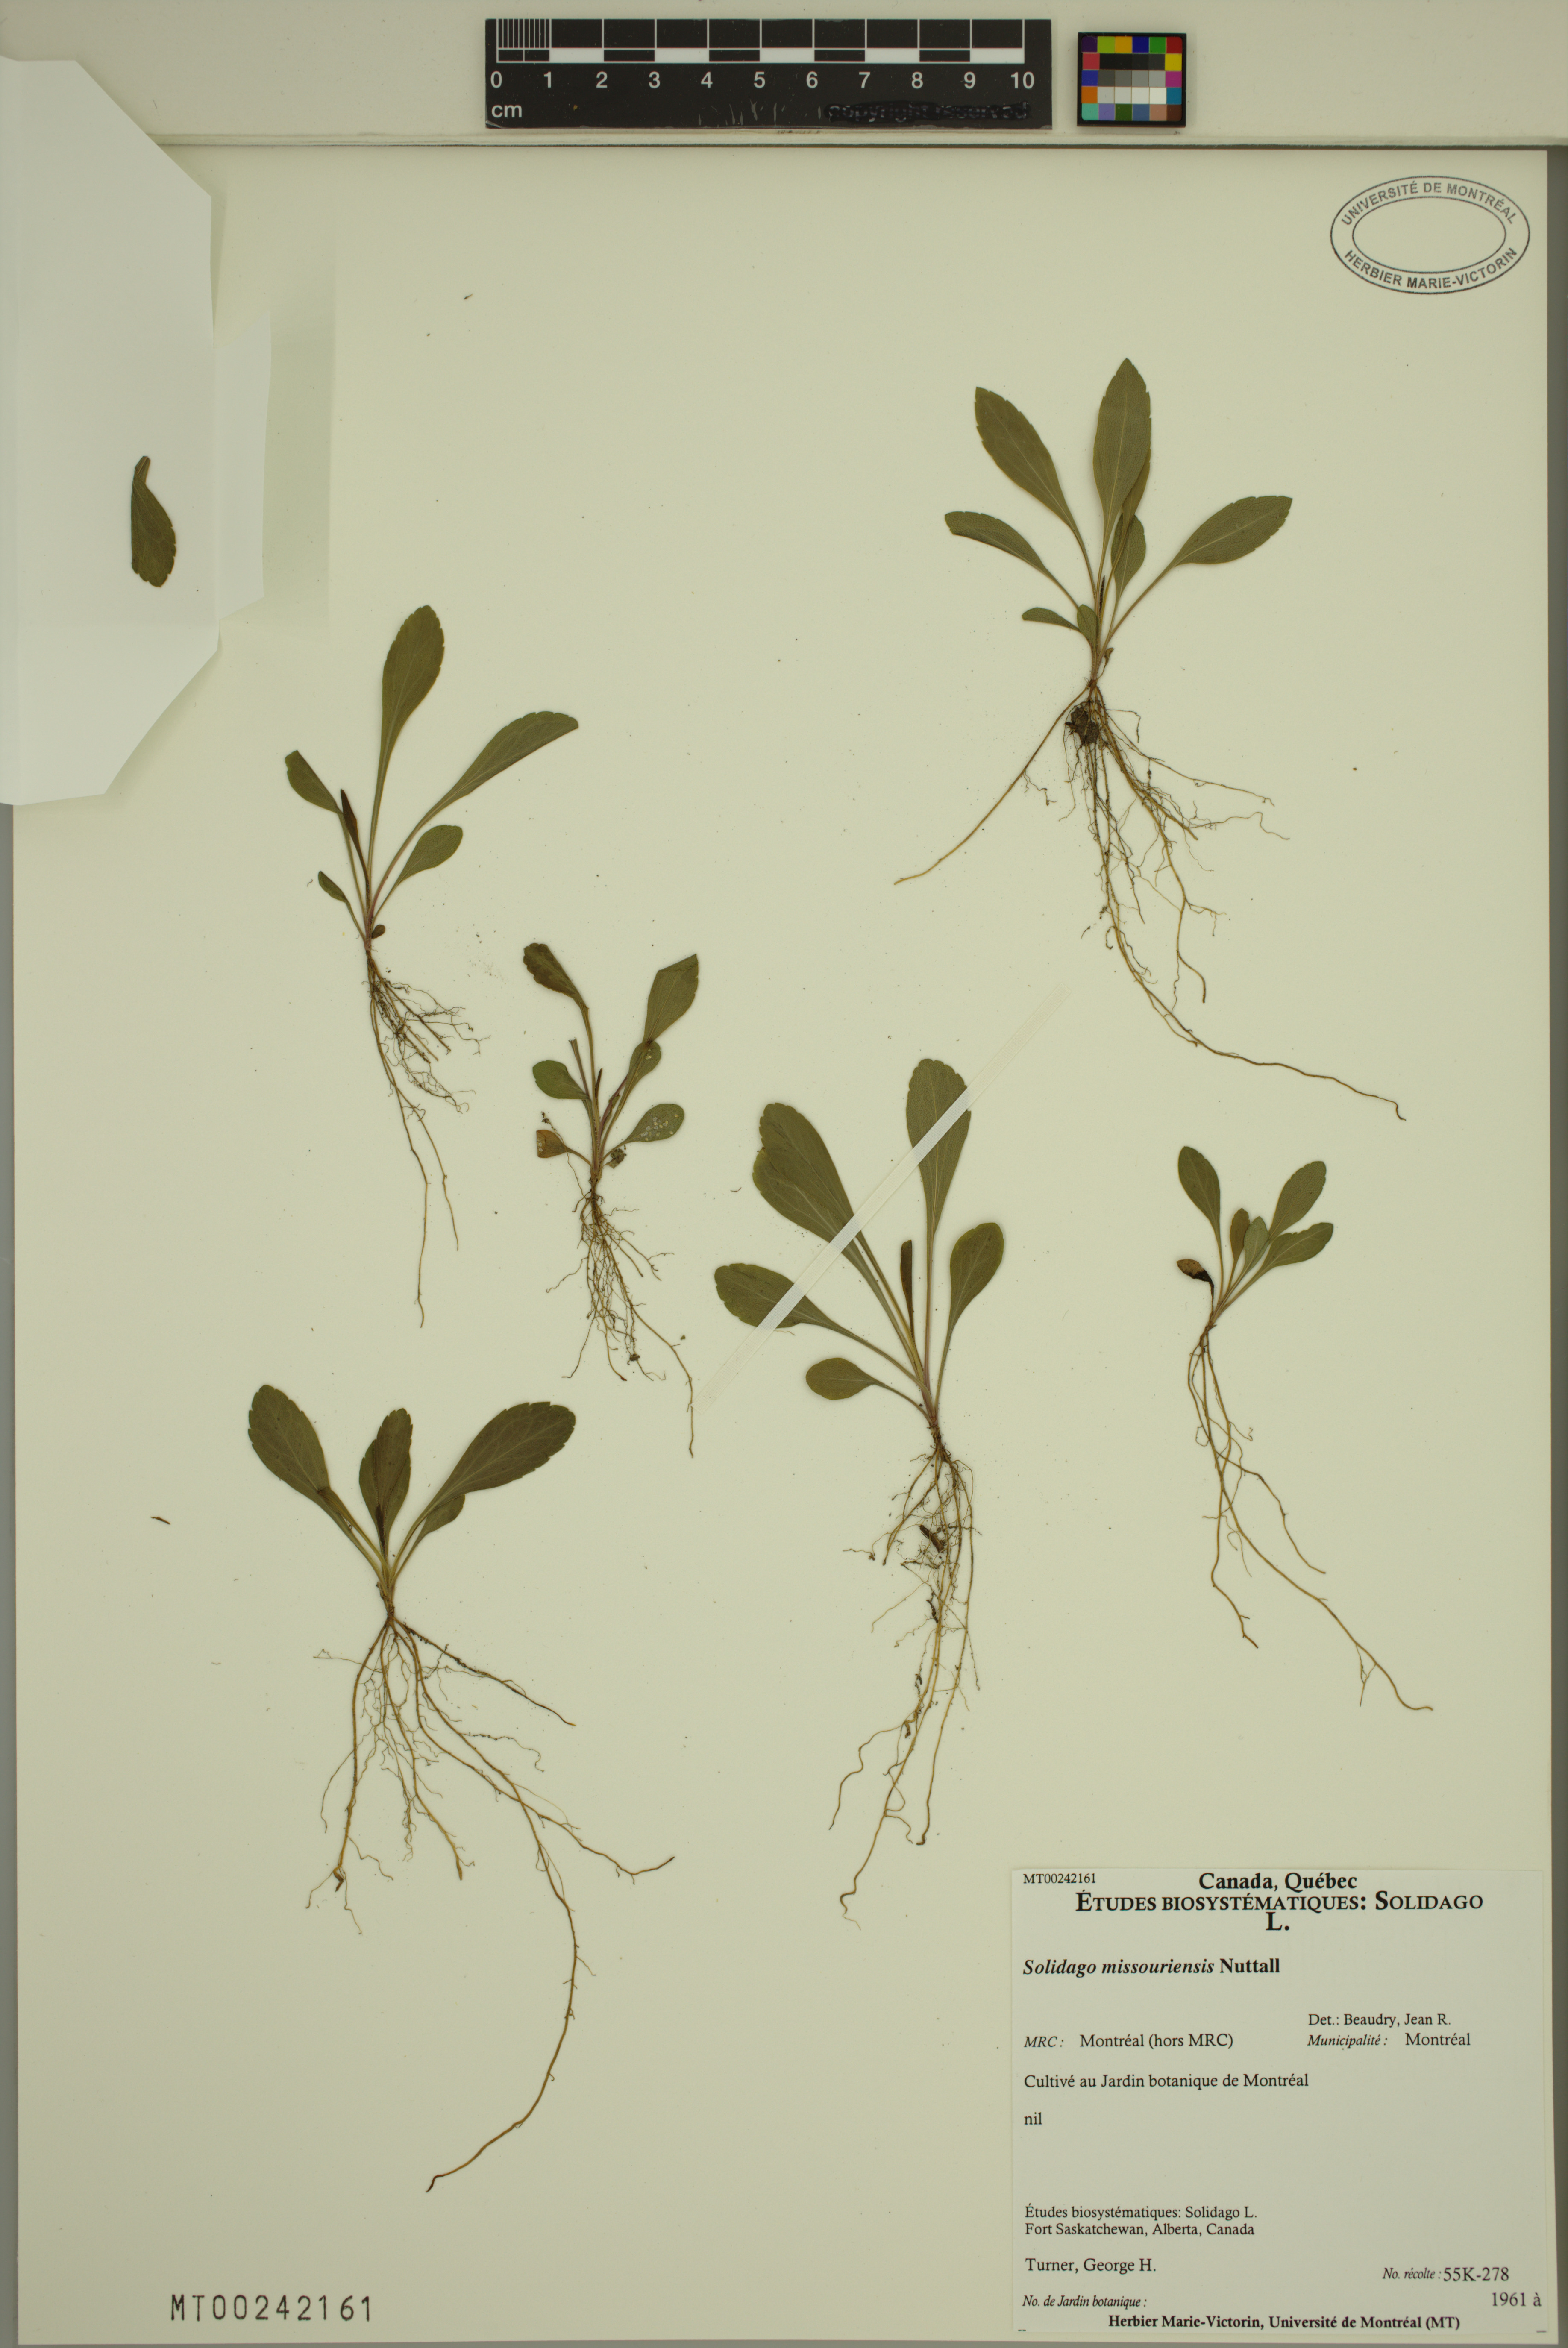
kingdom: Plantae
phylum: Tracheophyta
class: Magnoliopsida
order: Asterales
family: Asteraceae
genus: Solidago
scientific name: Solidago missouriensis
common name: Prairie goldenrod
